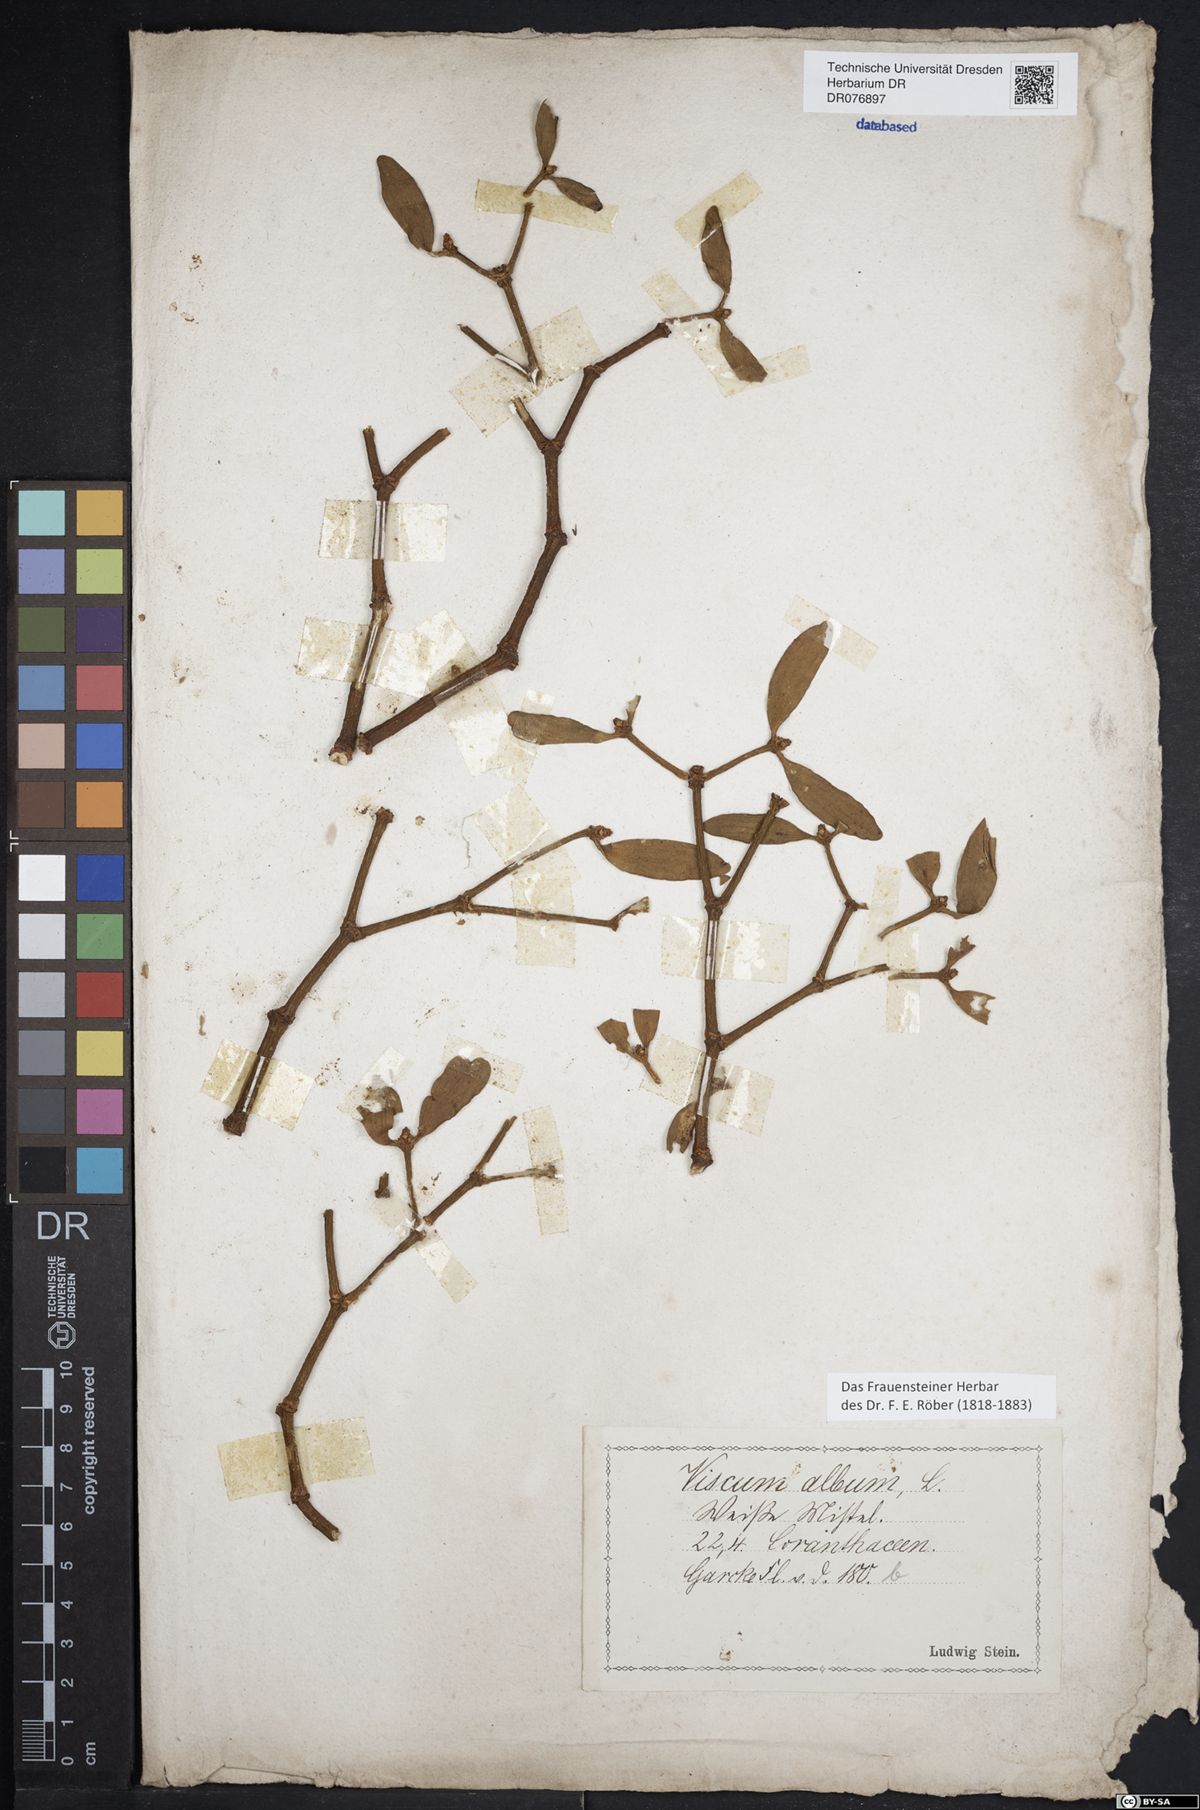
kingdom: Plantae
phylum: Tracheophyta
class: Magnoliopsida
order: Santalales
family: Viscaceae
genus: Viscum
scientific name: Viscum album
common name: Mistletoe
